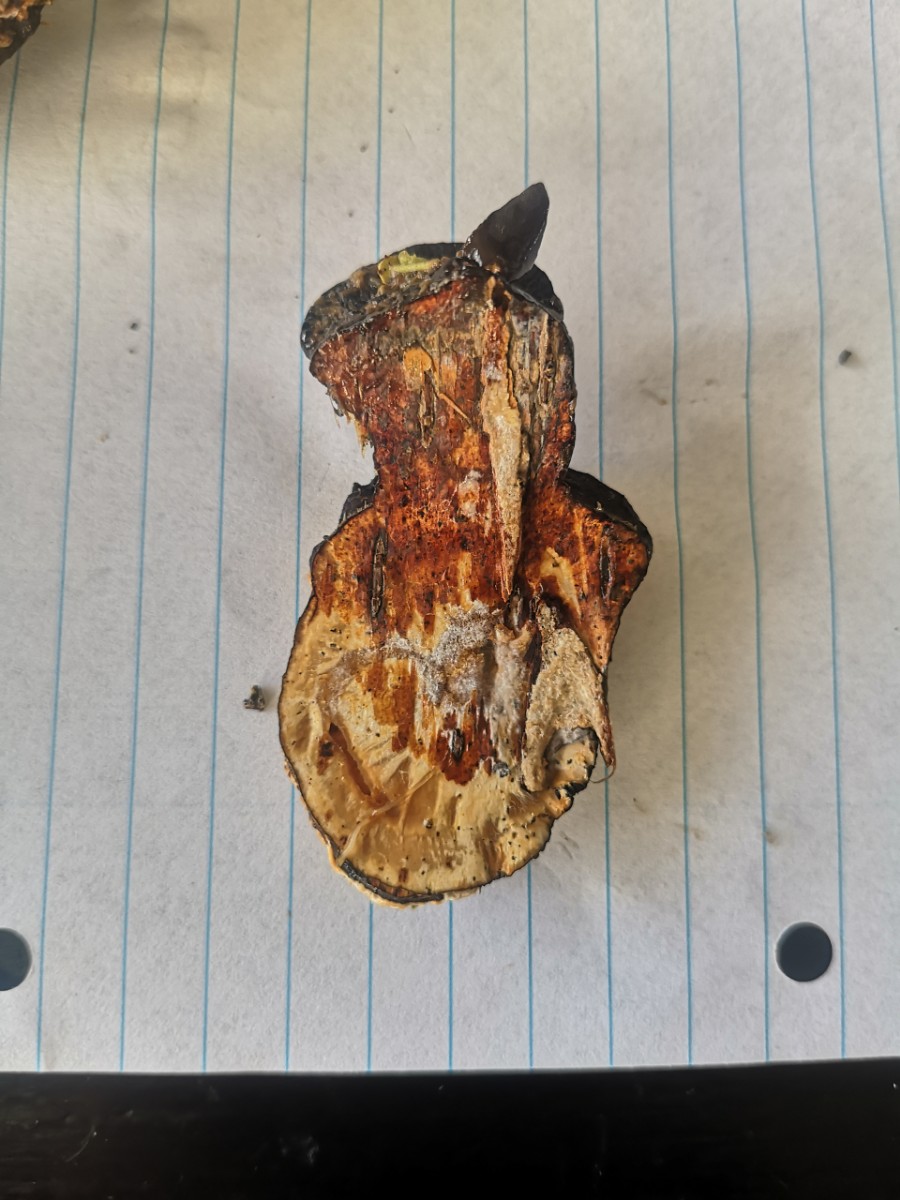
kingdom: Fungi
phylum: Basidiomycota
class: Agaricomycetes
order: Polyporales
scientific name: Polyporales
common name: poresvampordenen
